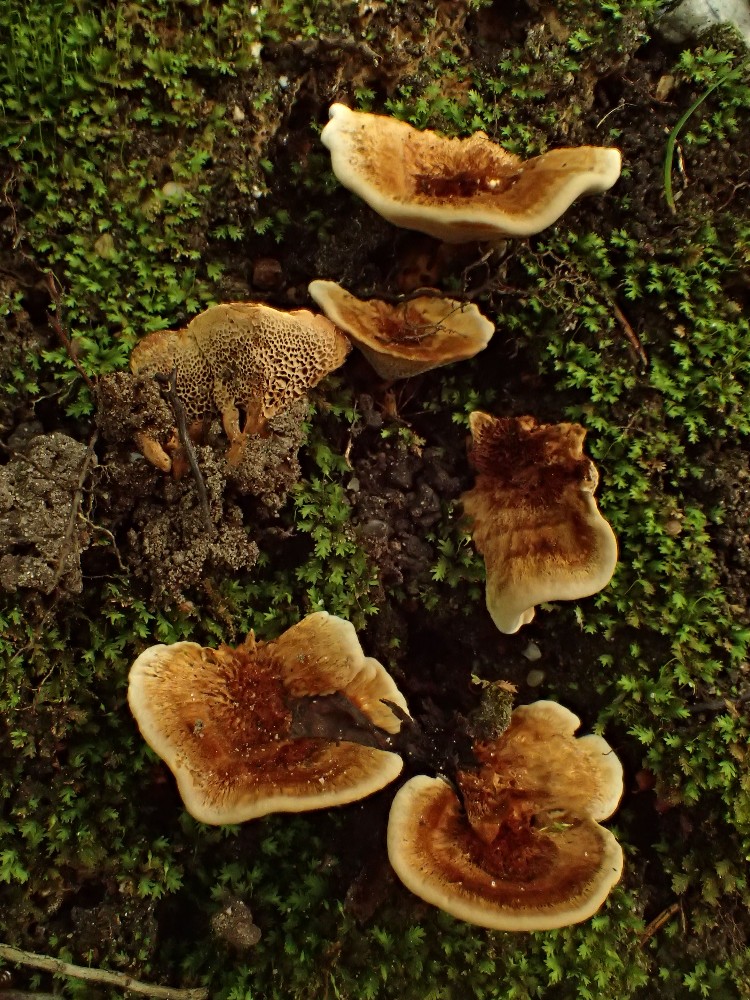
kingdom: Fungi
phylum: Basidiomycota
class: Agaricomycetes
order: Hymenochaetales
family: Hymenochaetaceae
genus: Coltricia
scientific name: Coltricia confluens
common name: park-sandporesvamp
